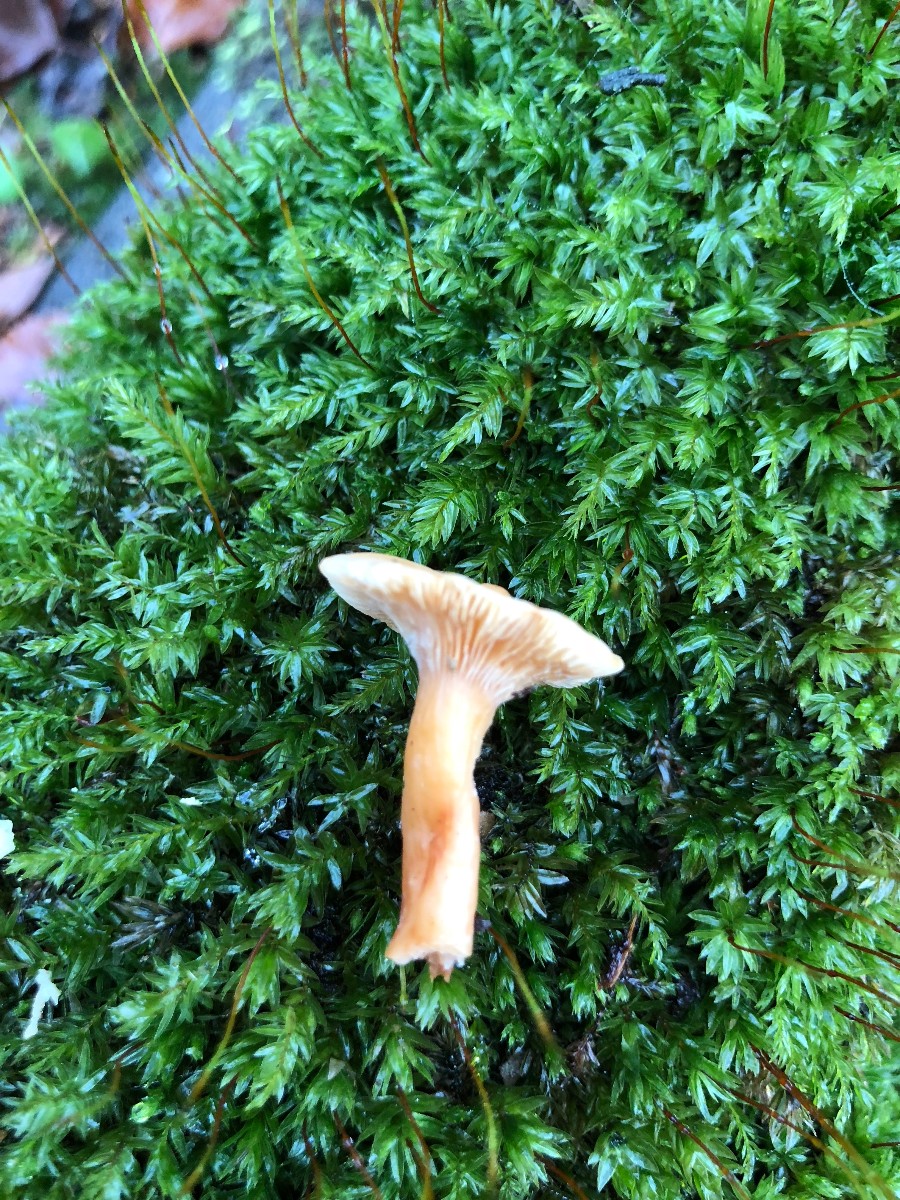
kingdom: Fungi
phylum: Basidiomycota
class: Agaricomycetes
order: Russulales
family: Russulaceae
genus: Lactarius
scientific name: Lactarius subdulcis
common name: sødlig mælkehat
